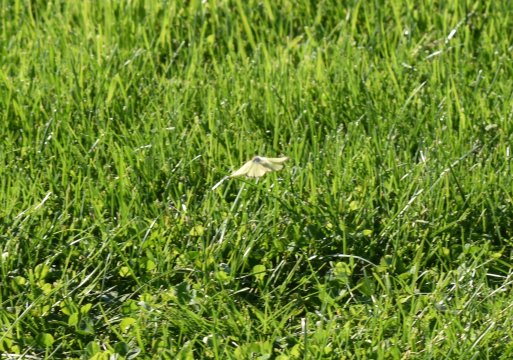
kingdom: Animalia
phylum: Arthropoda
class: Insecta
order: Lepidoptera
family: Pieridae
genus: Colias
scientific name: Colias philodice
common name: Clouded Sulphur
